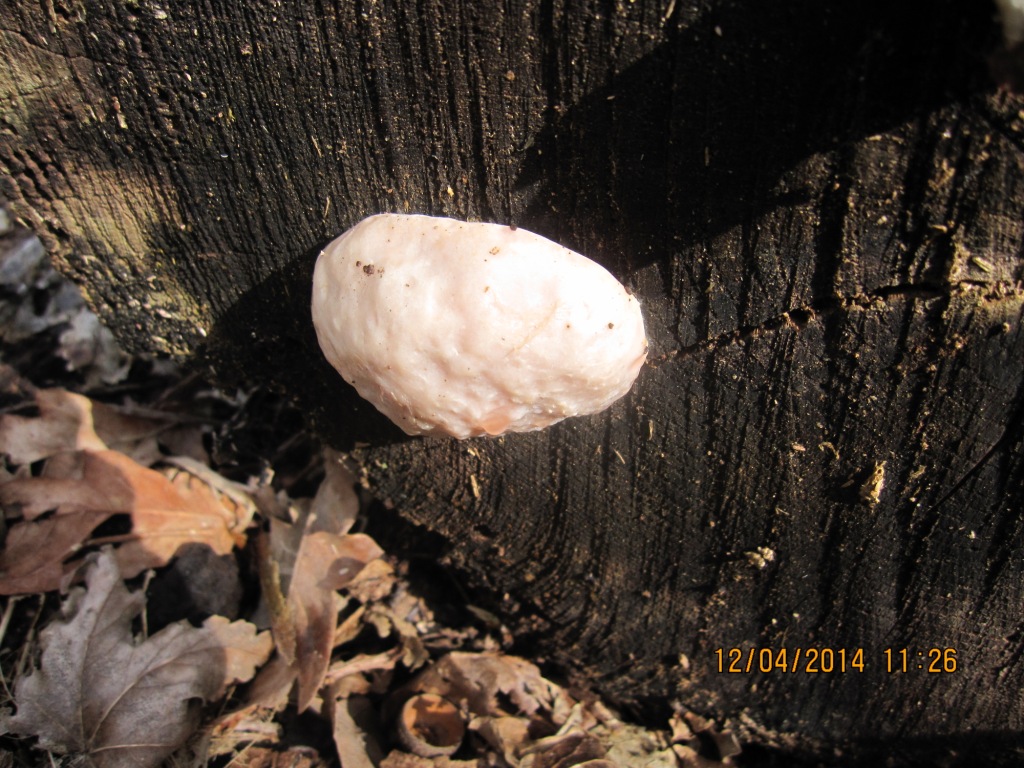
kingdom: Protozoa
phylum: Mycetozoa
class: Myxomycetes
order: Cribrariales
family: Tubiferaceae
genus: Reticularia
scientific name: Reticularia lycoperdon
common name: skinnende støvpude
